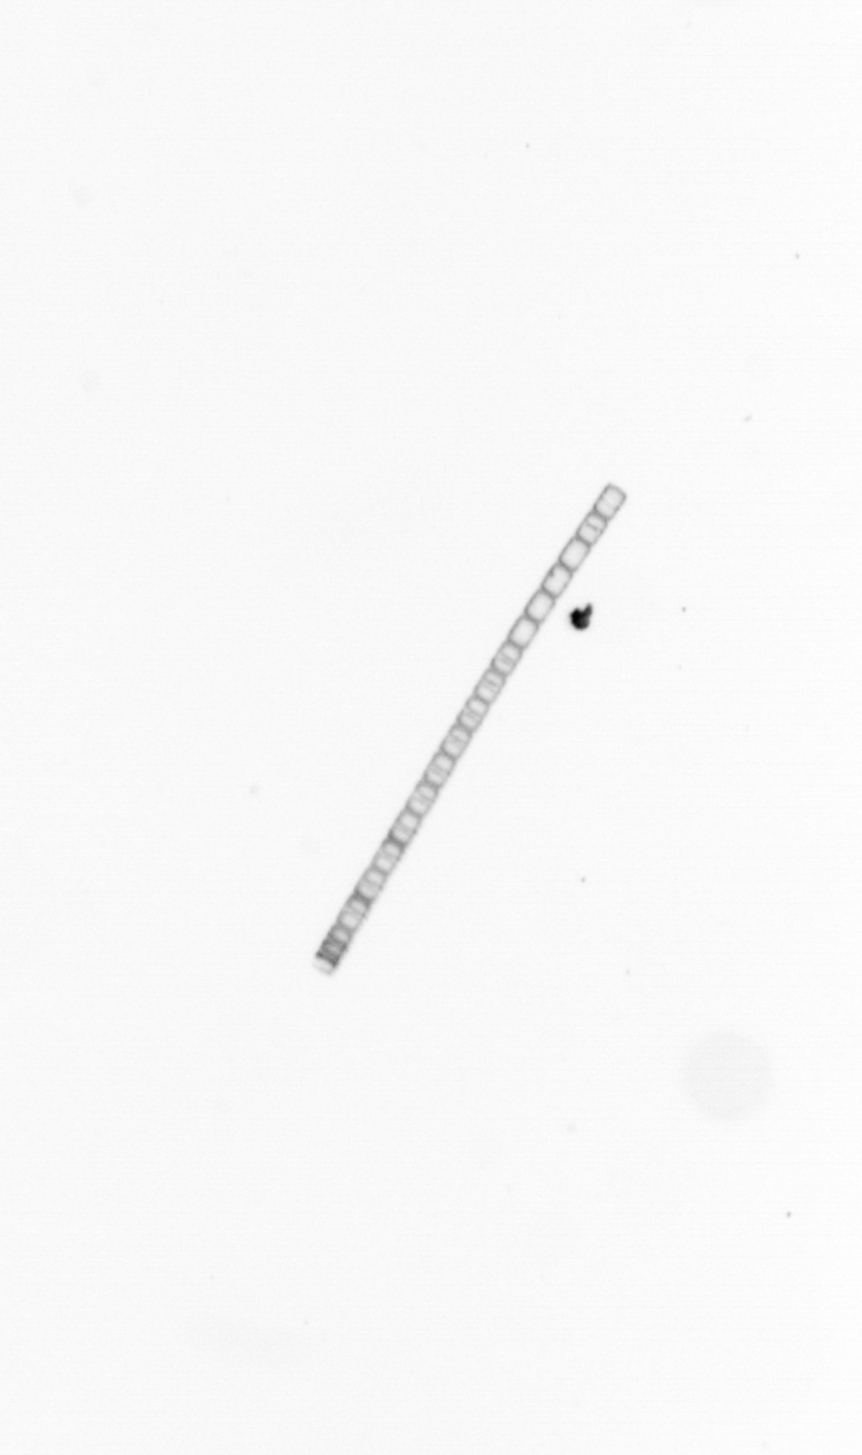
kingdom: Chromista
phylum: Ochrophyta
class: Bacillariophyceae
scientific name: Bacillariophyceae
